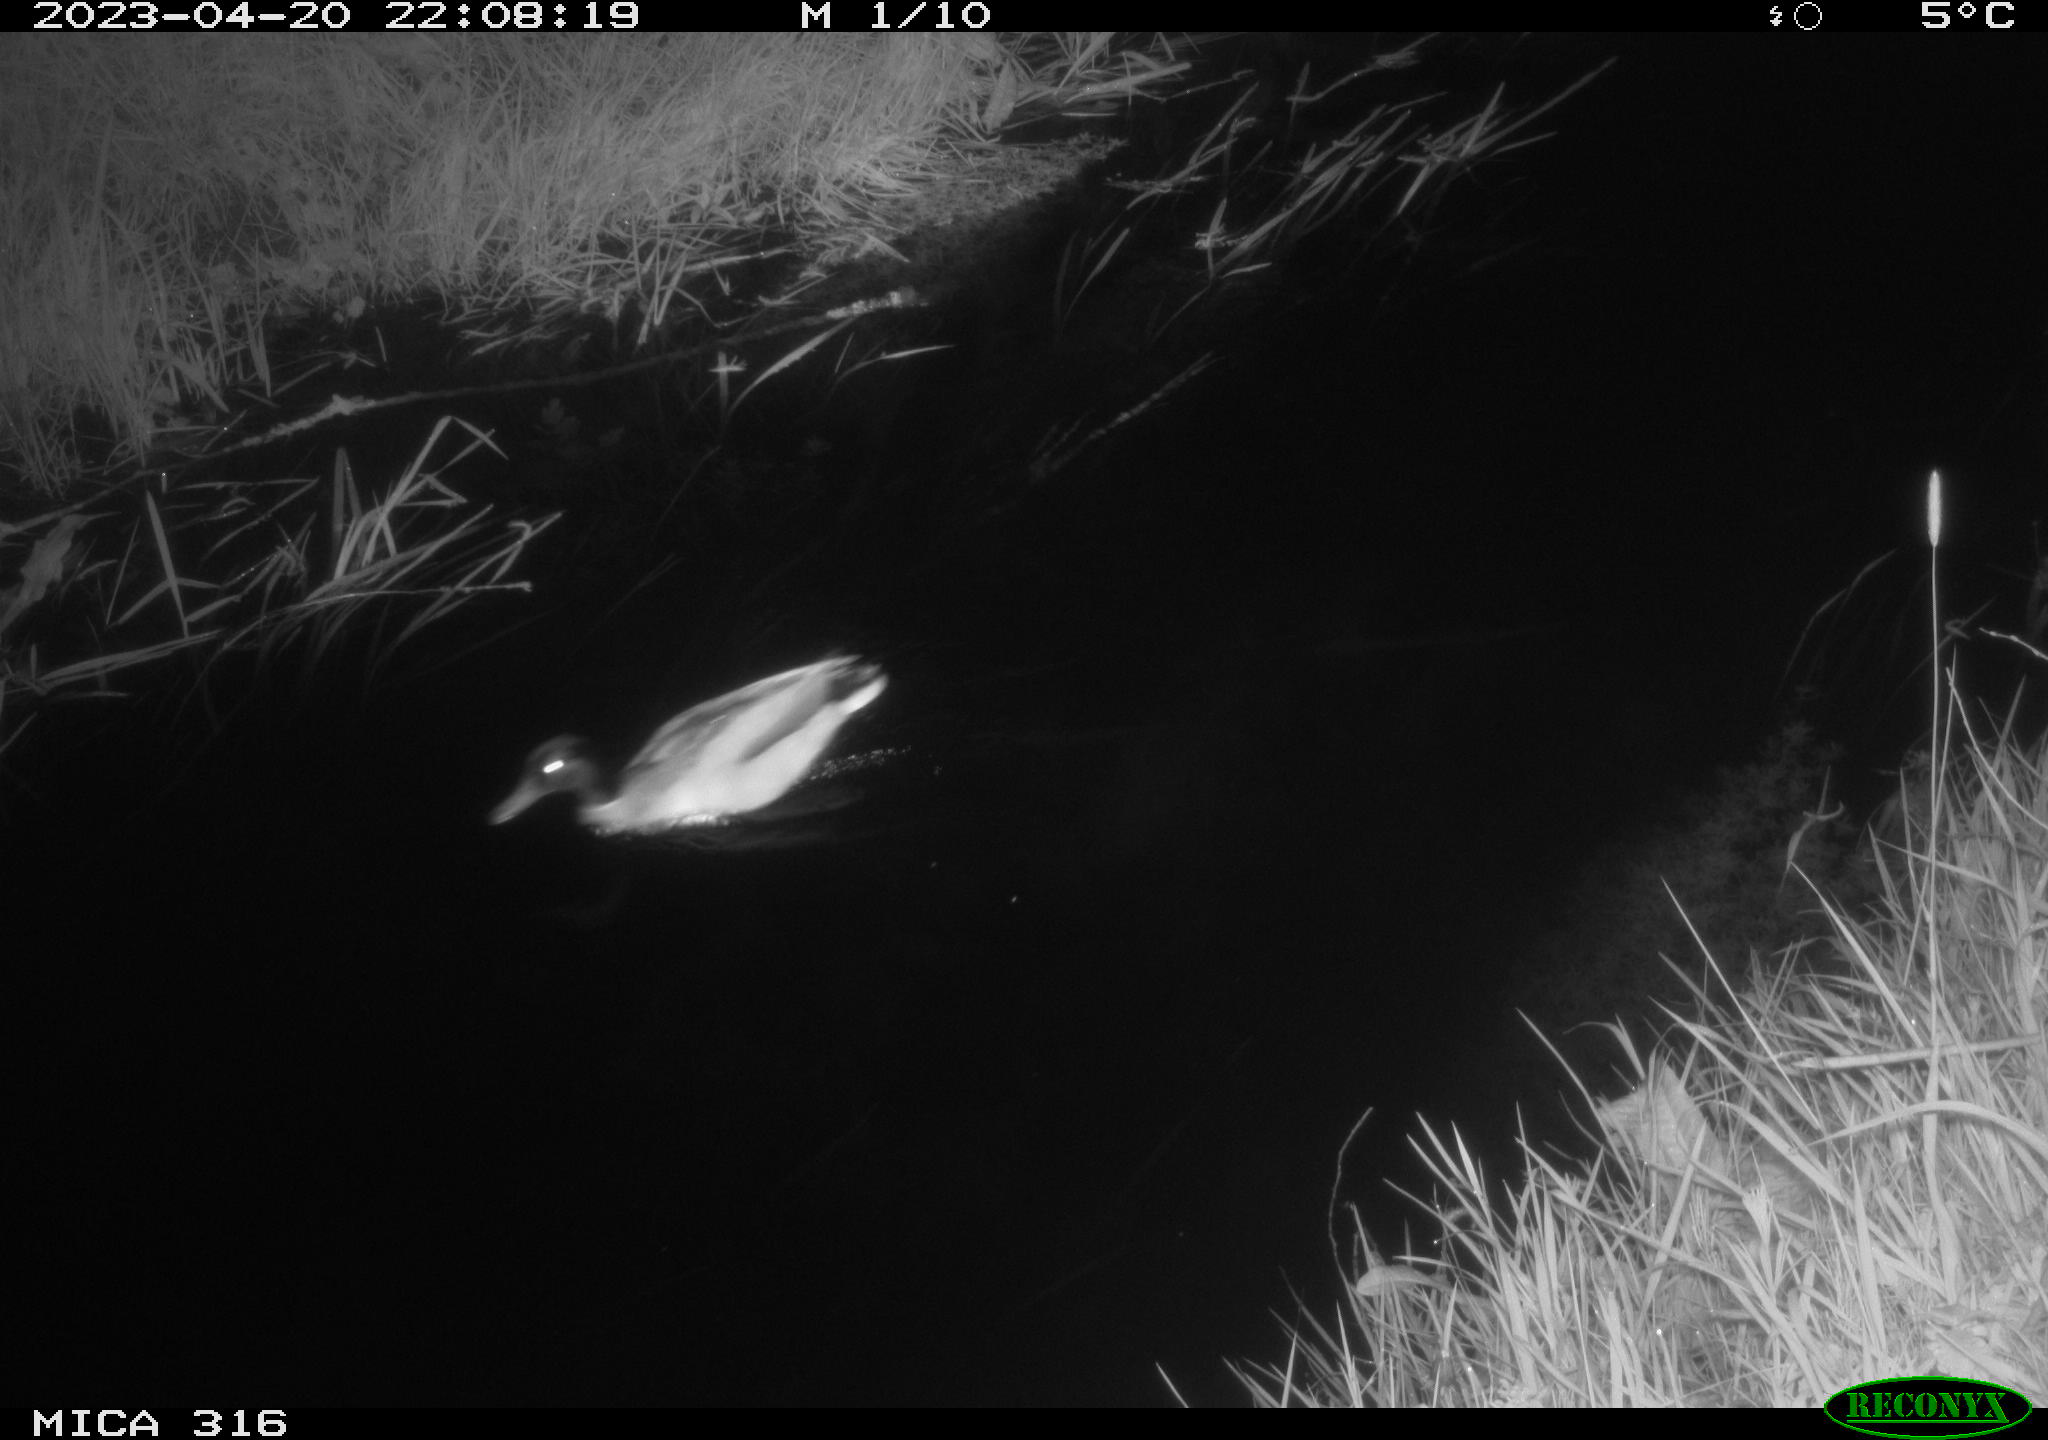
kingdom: Animalia
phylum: Chordata
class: Aves
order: Anseriformes
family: Anatidae
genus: Anas
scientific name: Anas
